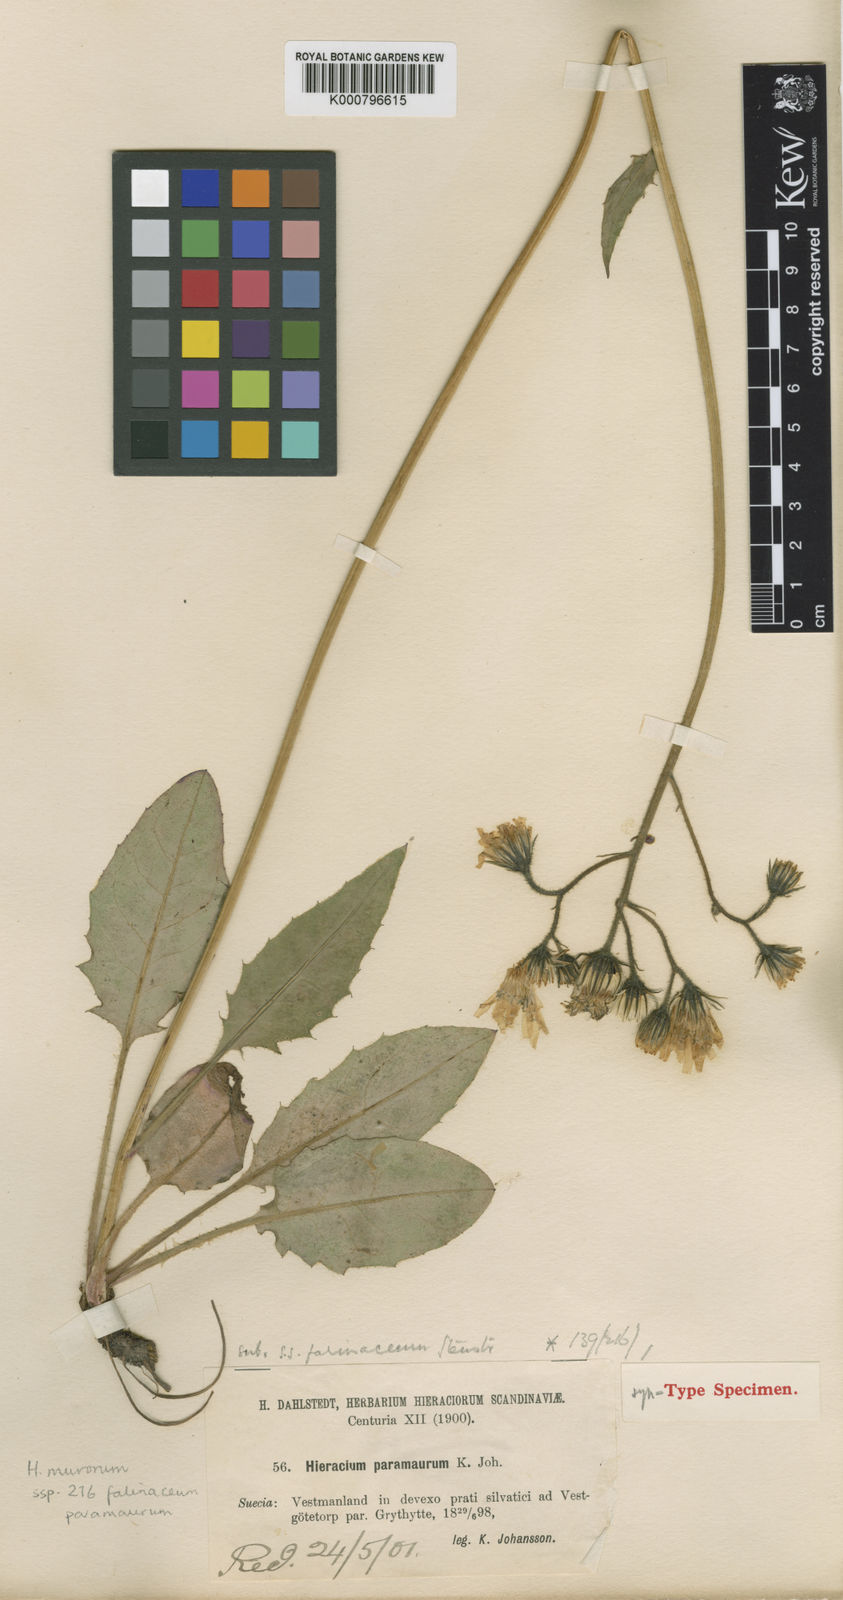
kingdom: Plantae
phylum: Tracheophyta
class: Magnoliopsida
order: Asterales
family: Asteraceae
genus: Hieracium
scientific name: Hieracium murorum
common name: Wall hawkweed
